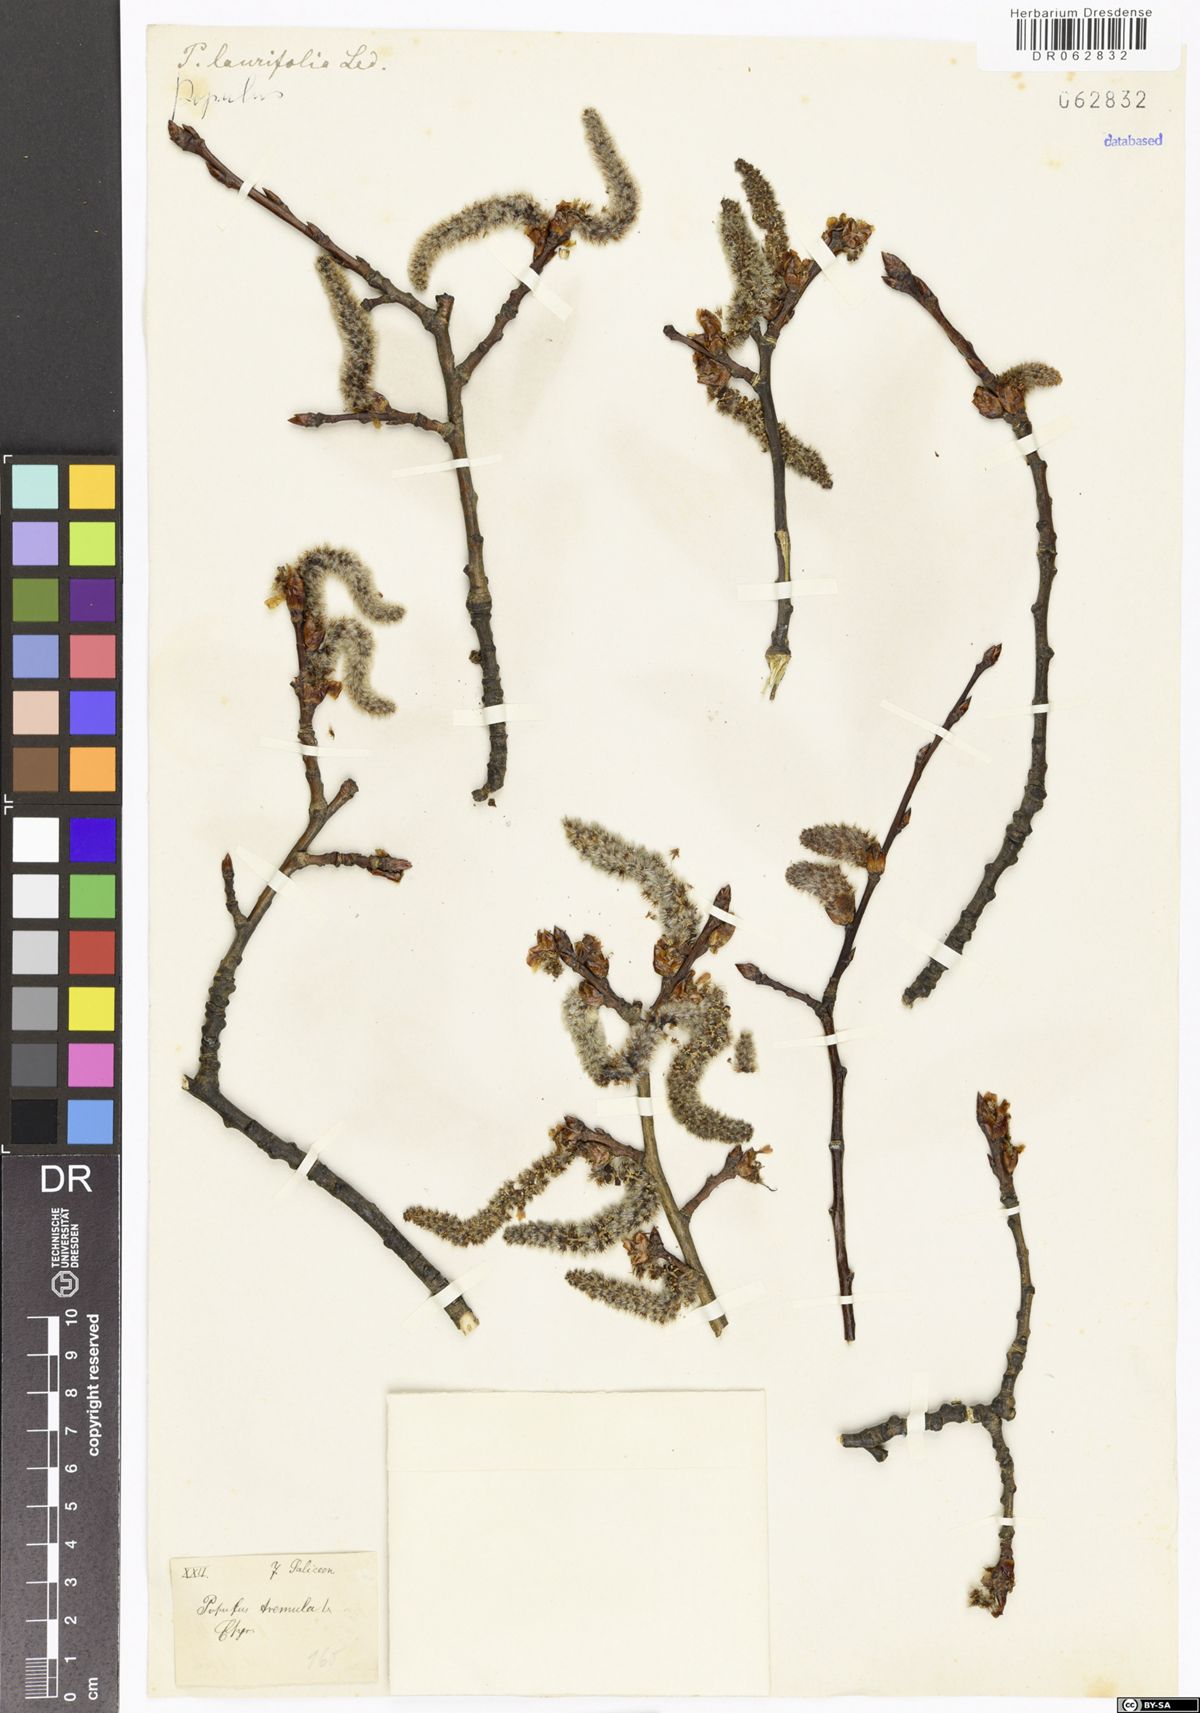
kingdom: Plantae
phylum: Tracheophyta
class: Magnoliopsida
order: Malpighiales
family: Salicaceae
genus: Populus
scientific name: Populus tremula
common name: European aspen
